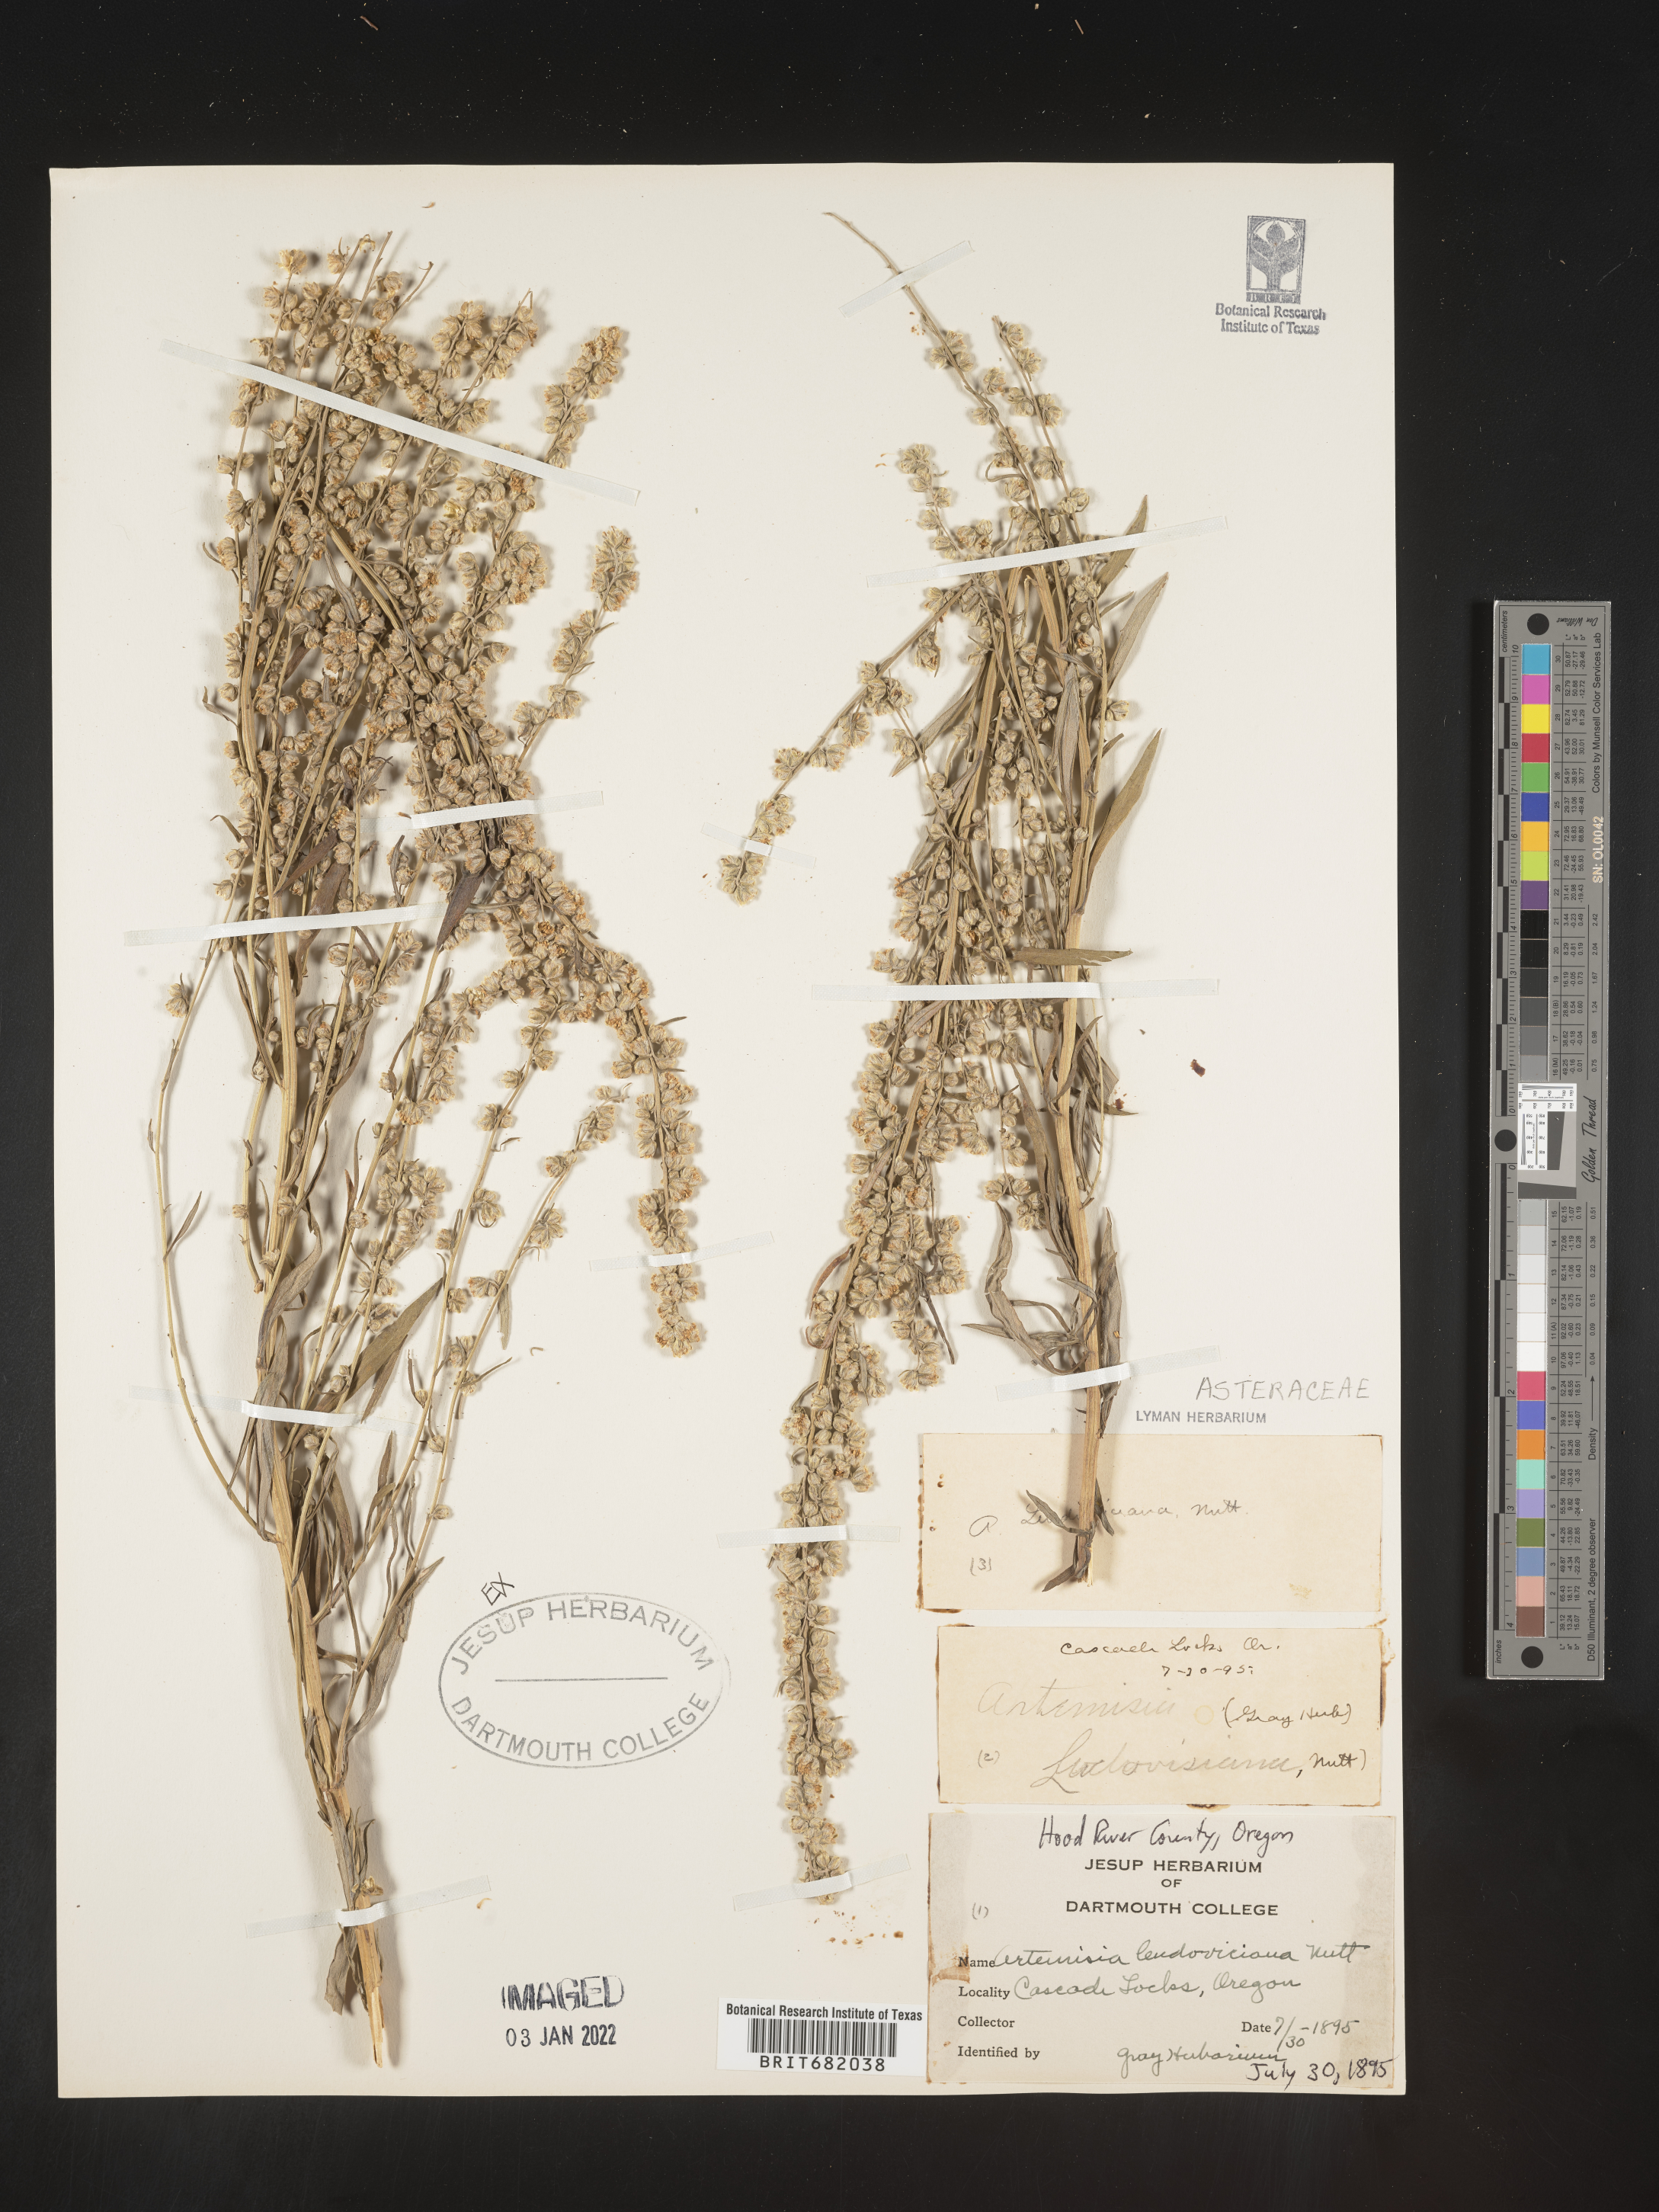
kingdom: Plantae
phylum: Tracheophyta
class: Magnoliopsida
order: Asterales
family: Asteraceae
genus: Artemisia
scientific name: Artemisia ludoviciana
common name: Western mugwort
